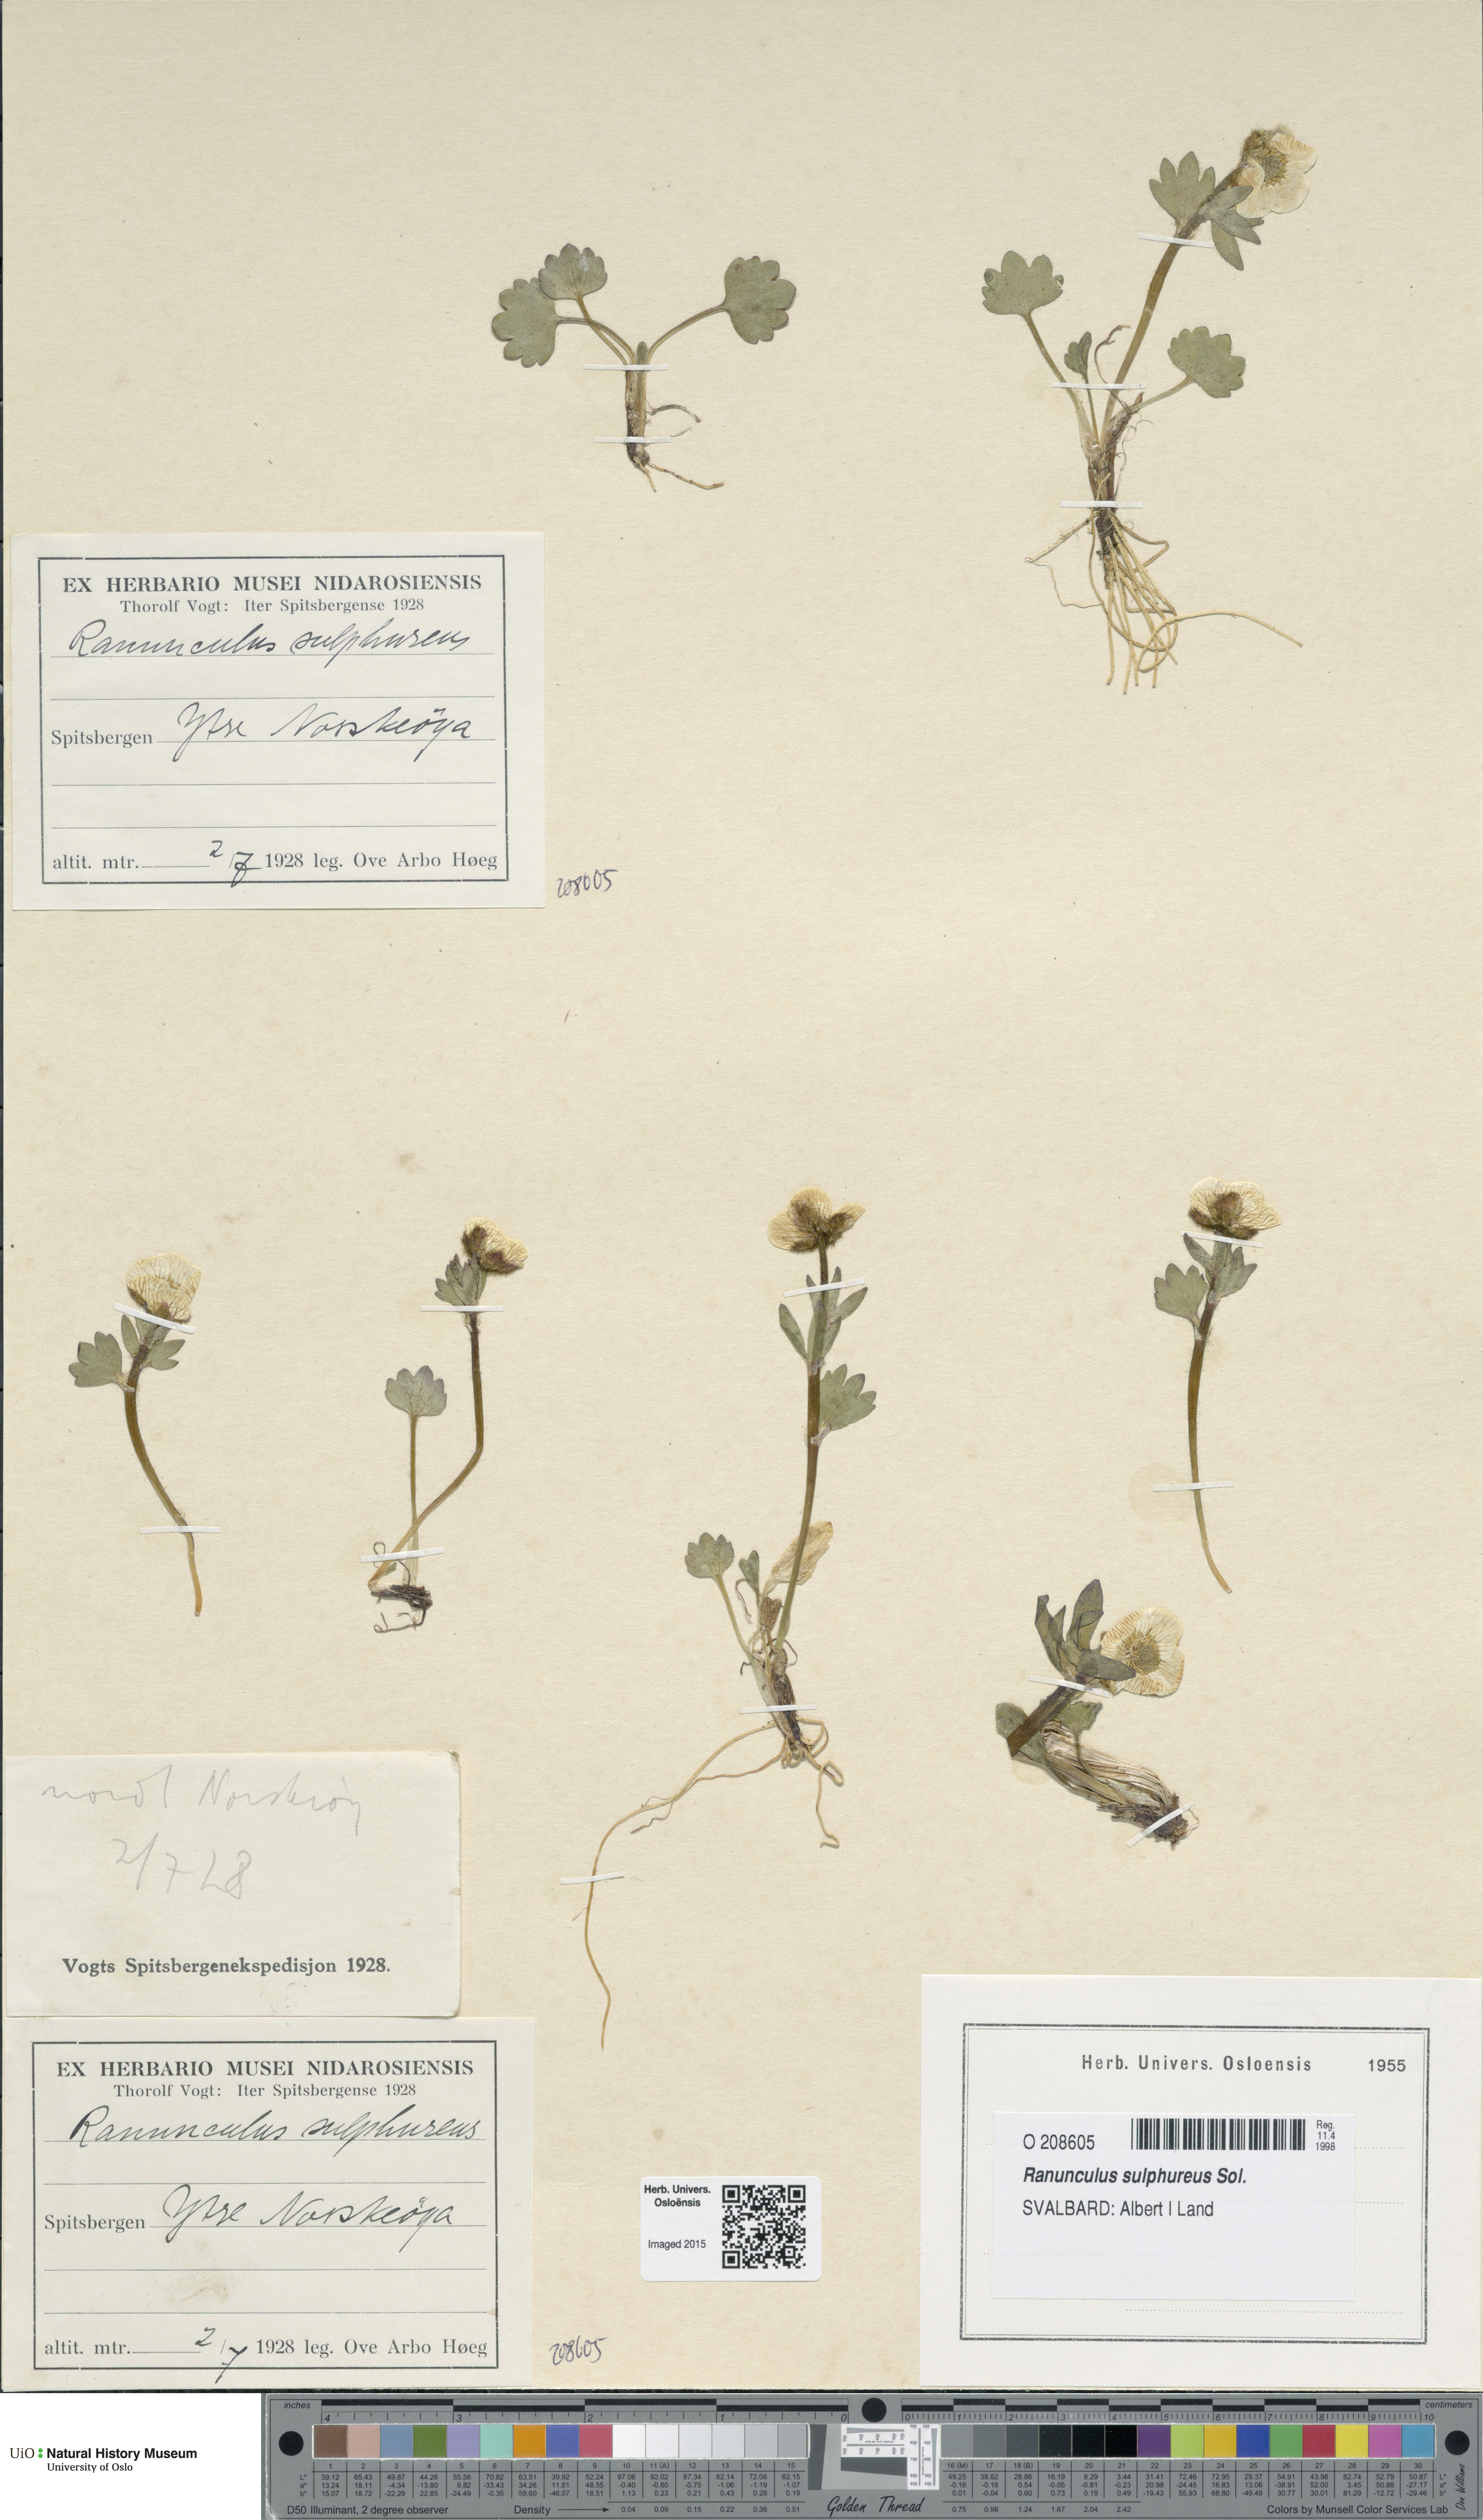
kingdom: Plantae
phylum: Tracheophyta
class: Magnoliopsida
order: Ranunculales
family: Ranunculaceae
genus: Ranunculus
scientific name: Ranunculus sulphureus
